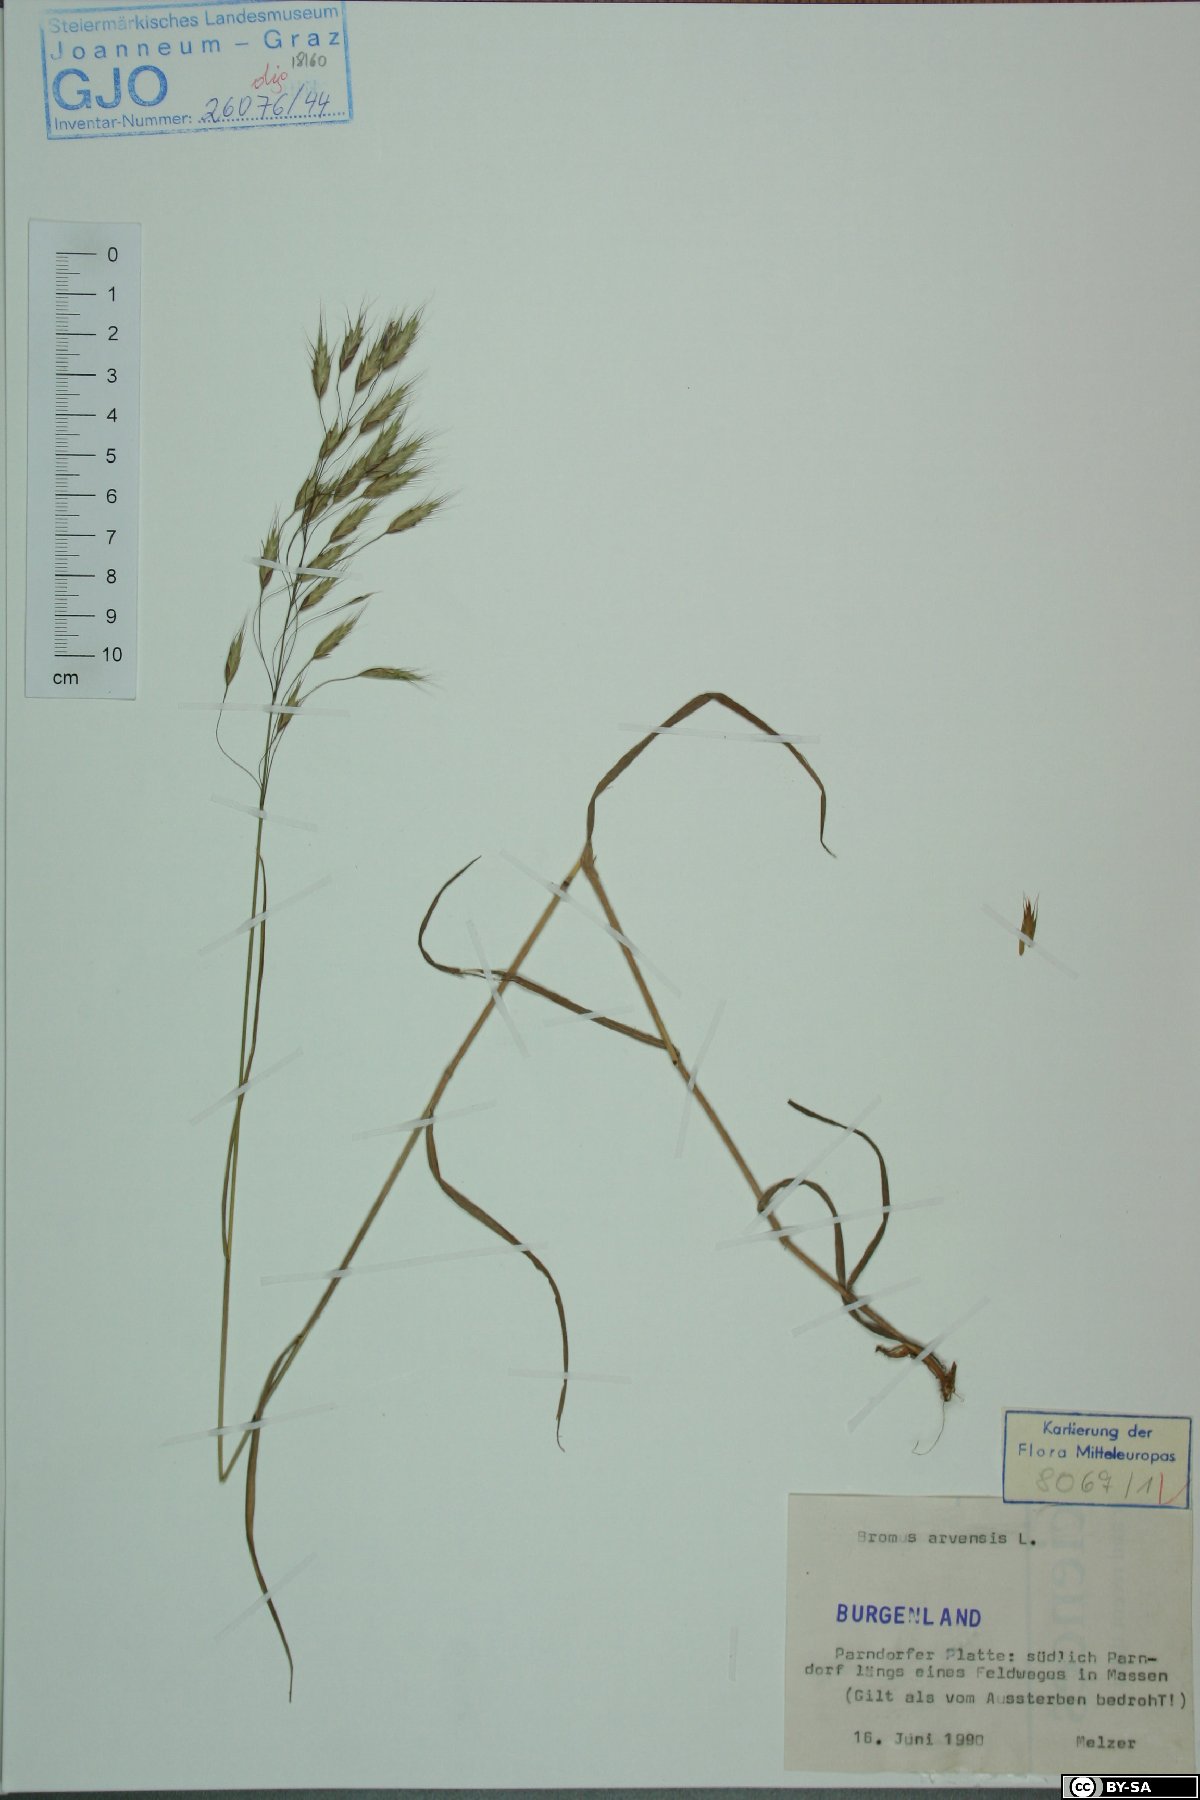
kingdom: Plantae
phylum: Tracheophyta
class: Liliopsida
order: Poales
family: Poaceae
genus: Bromus
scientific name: Bromus arvensis
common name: Field brome
